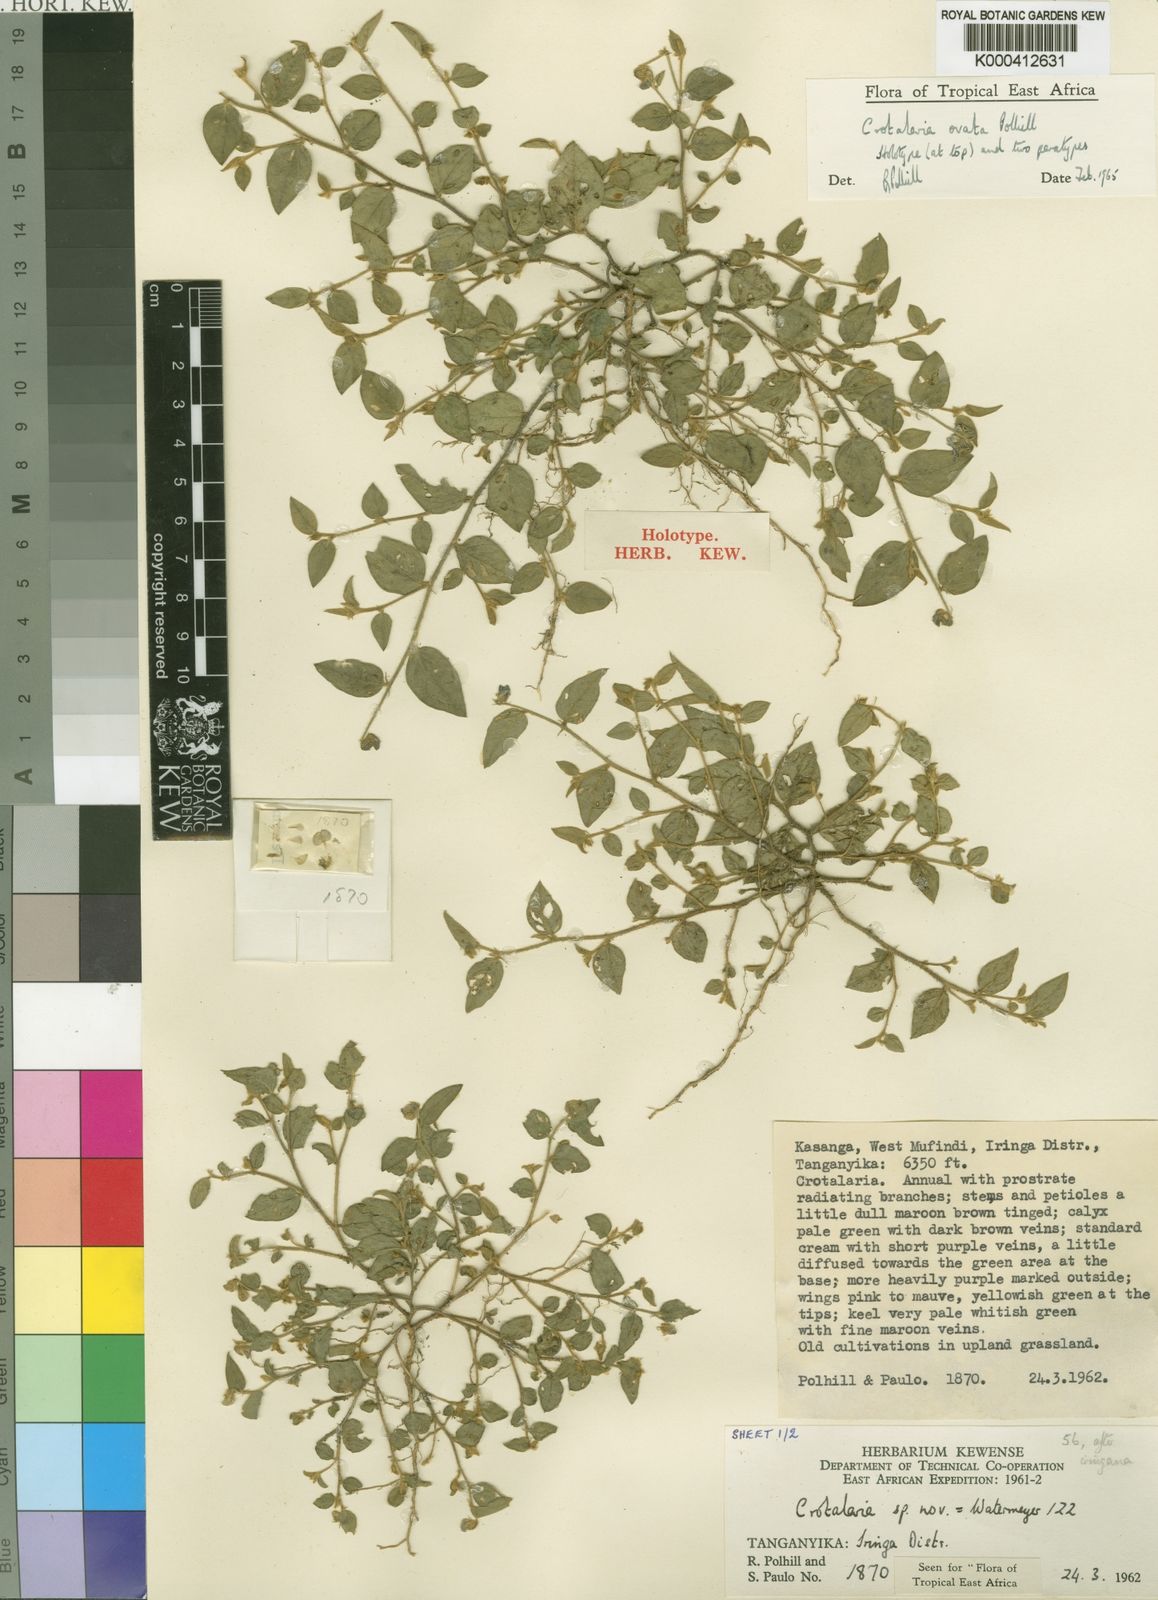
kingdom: Plantae
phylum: Tracheophyta
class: Magnoliopsida
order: Fabales
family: Fabaceae
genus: Crotalaria
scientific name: Crotalaria ovata
